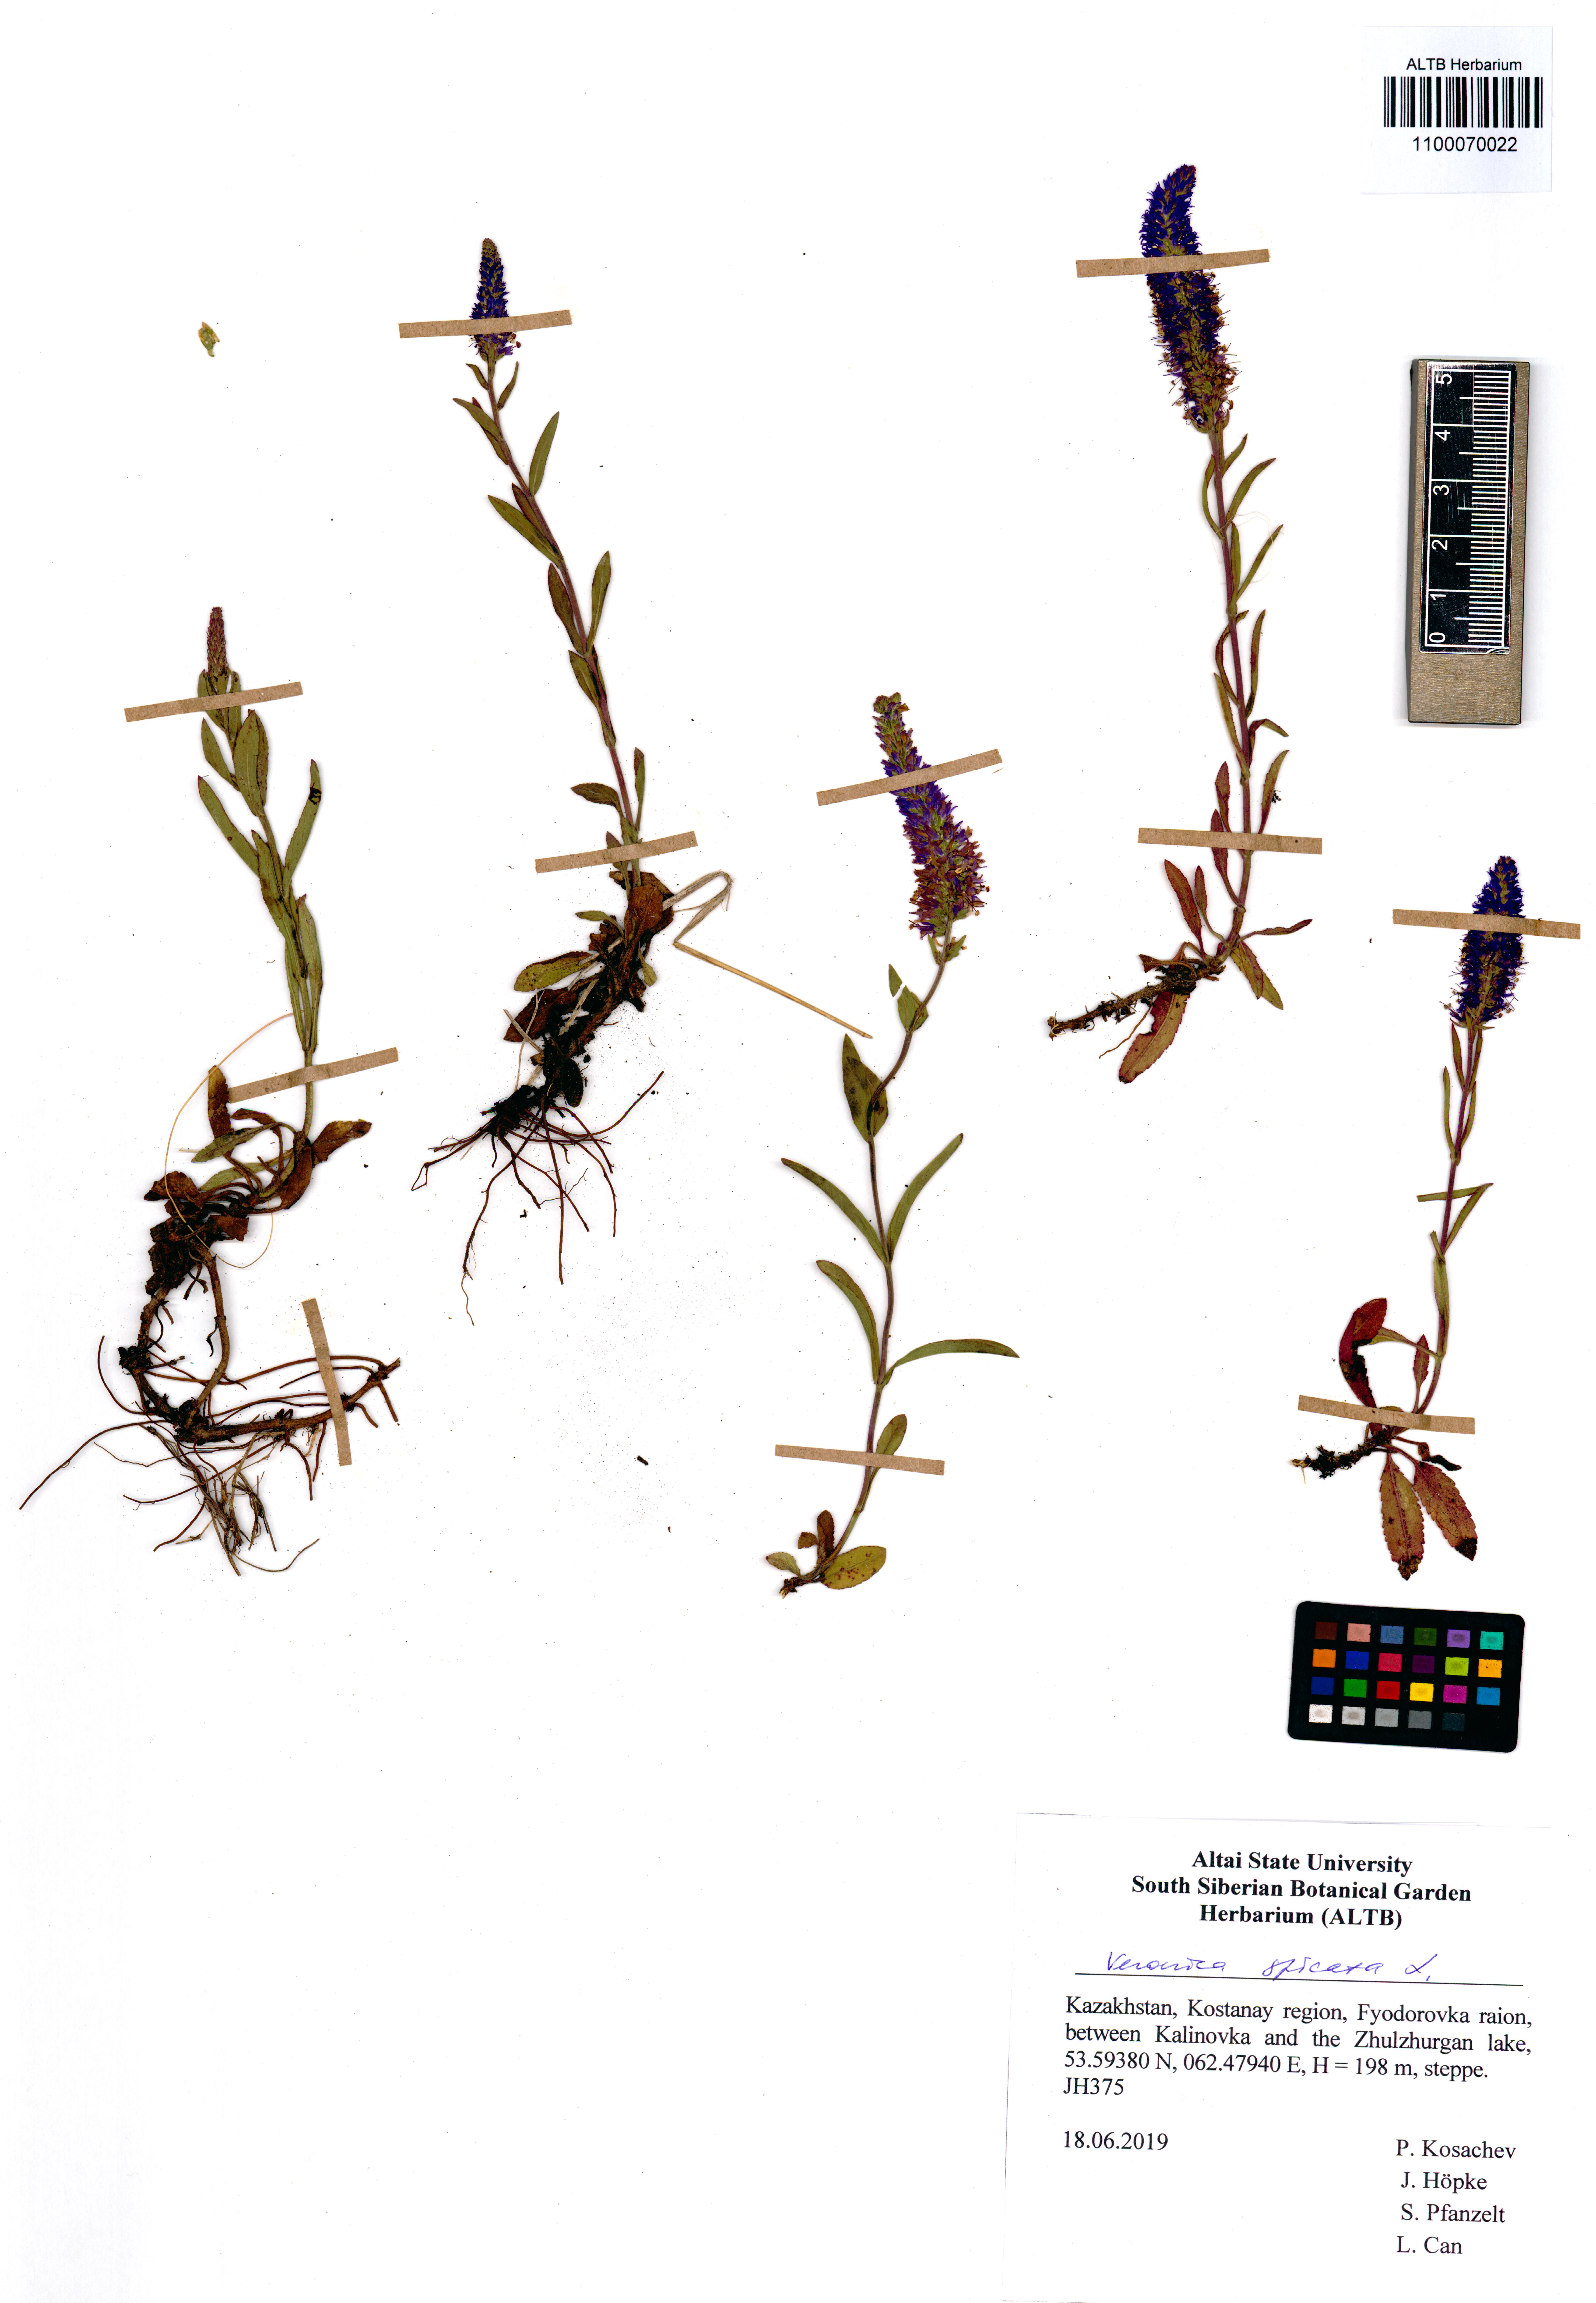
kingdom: Plantae
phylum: Tracheophyta
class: Magnoliopsida
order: Lamiales
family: Plantaginaceae
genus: Veronica
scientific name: Veronica spicata
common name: Spiked speedwell
